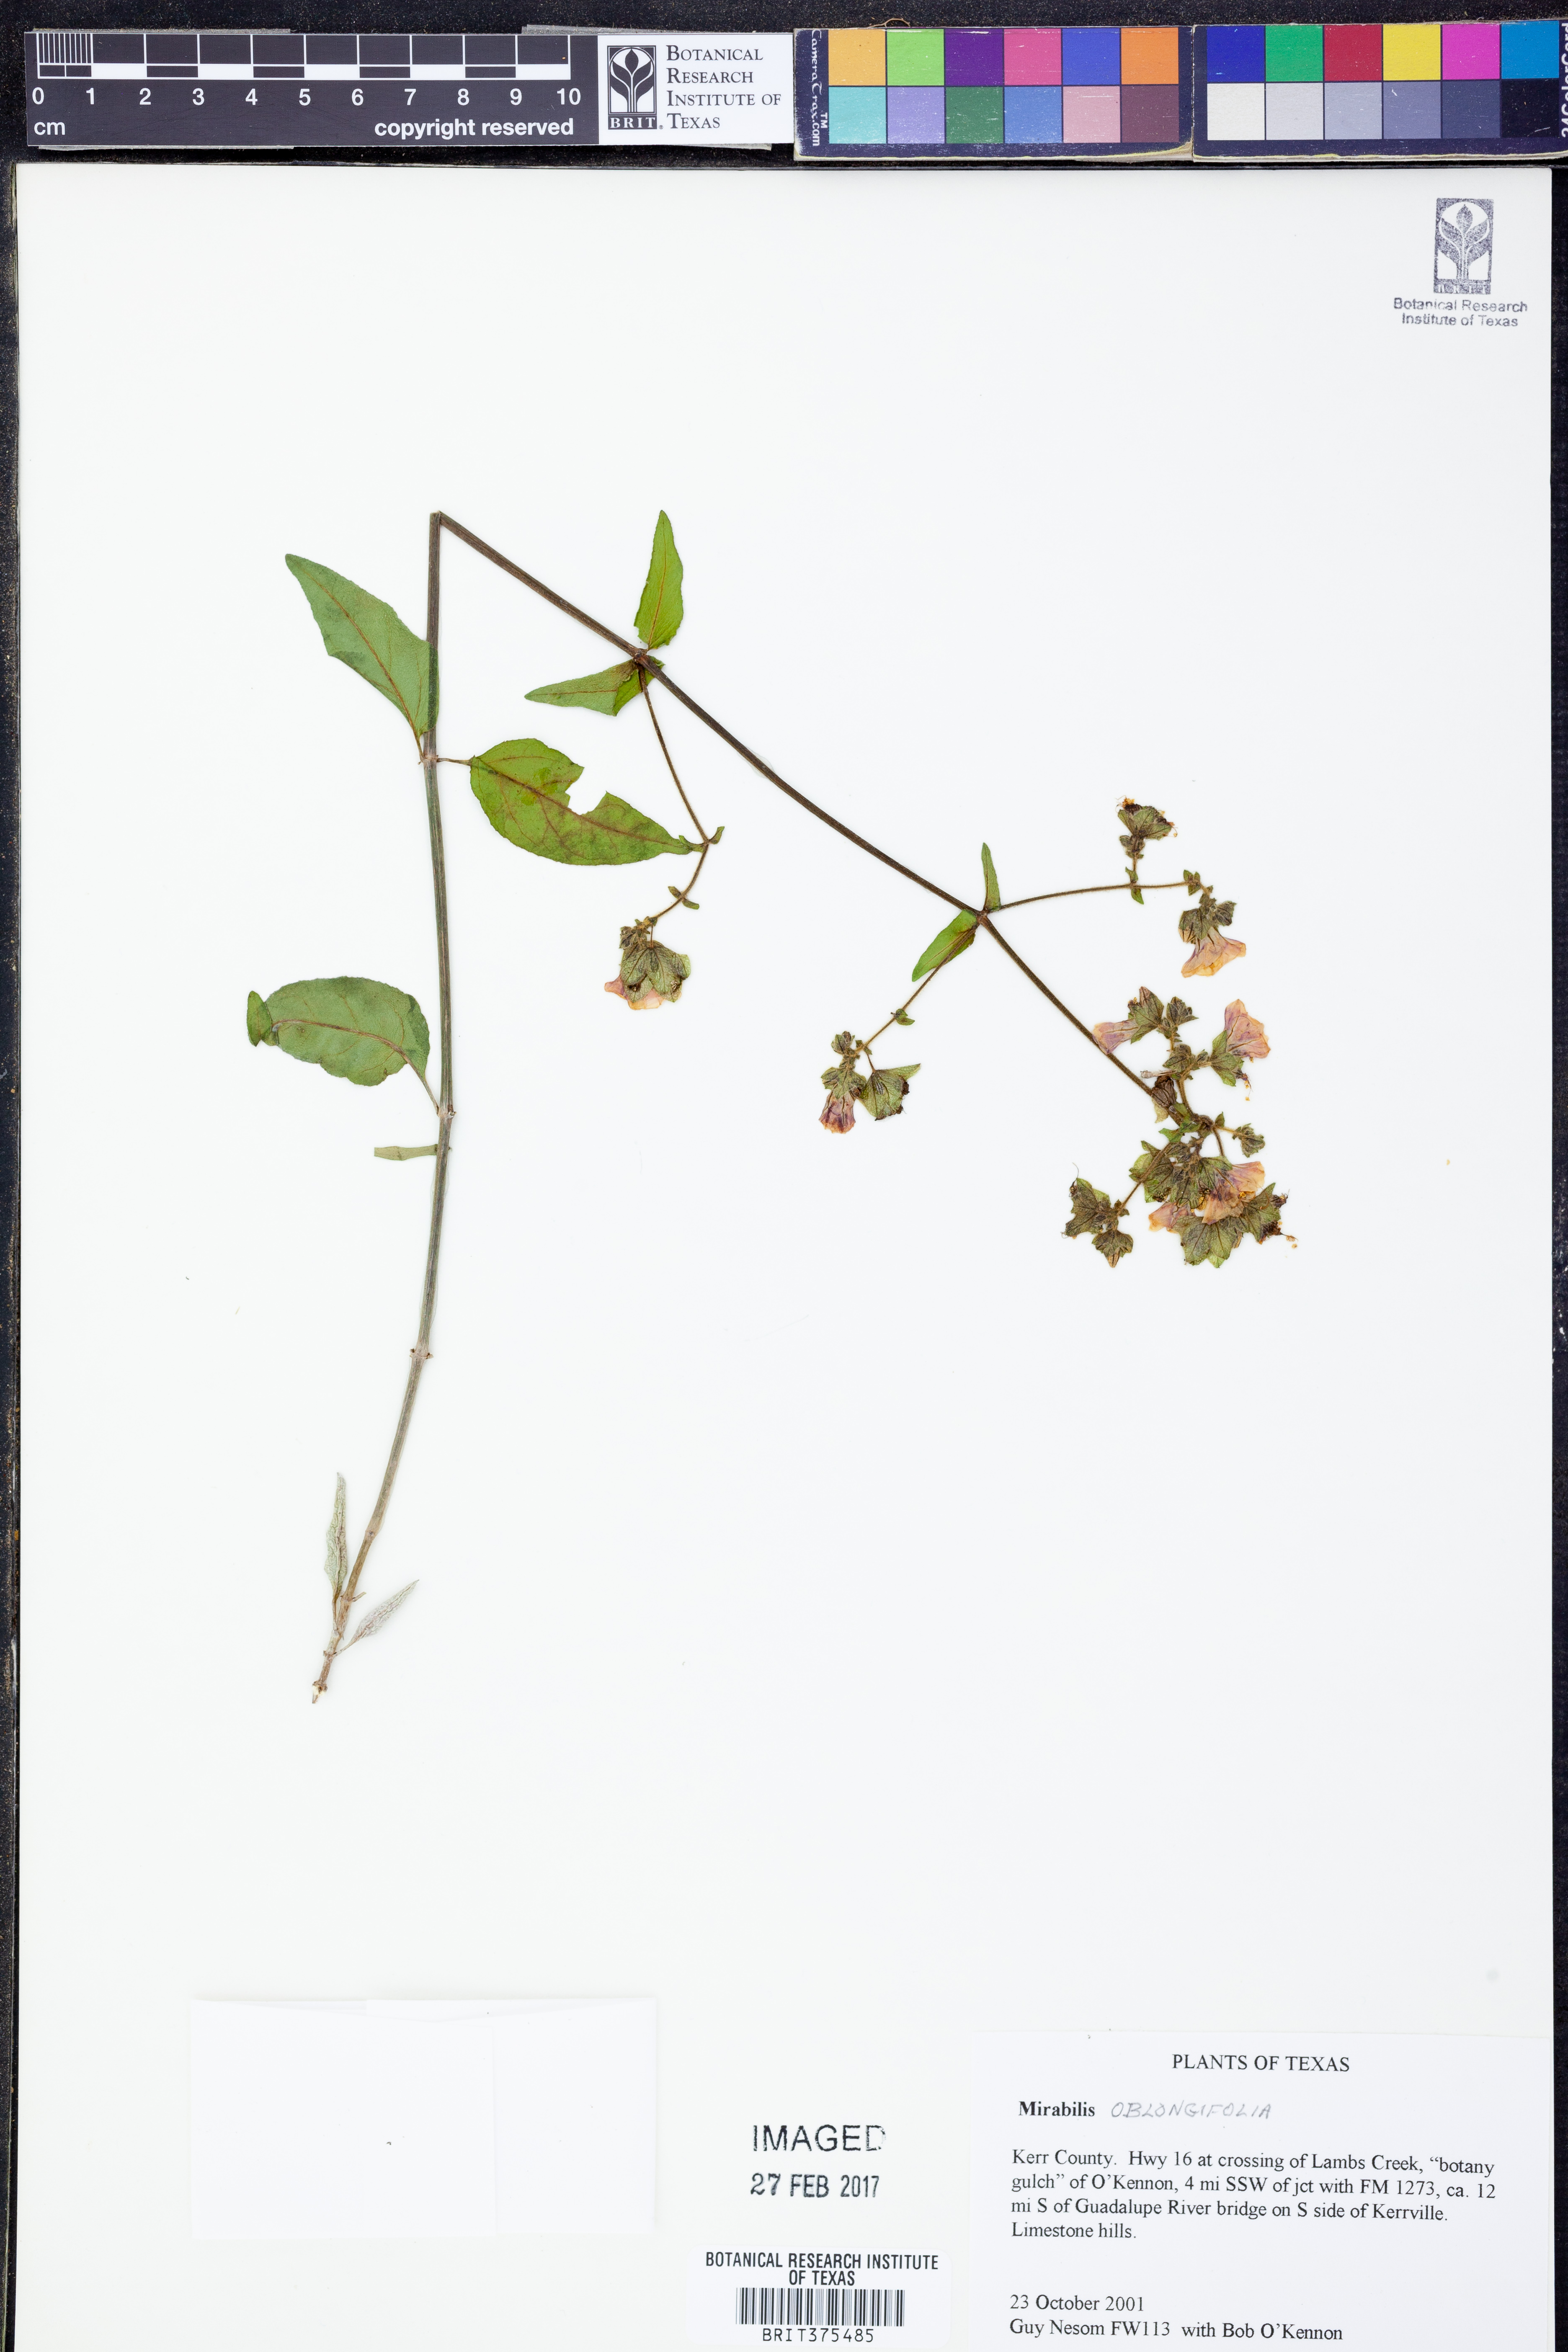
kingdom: Plantae
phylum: Tracheophyta
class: Magnoliopsida
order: Caryophyllales
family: Nyctaginaceae
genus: Mirabilis
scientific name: Mirabilis albida
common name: Hairy four-o'clock
